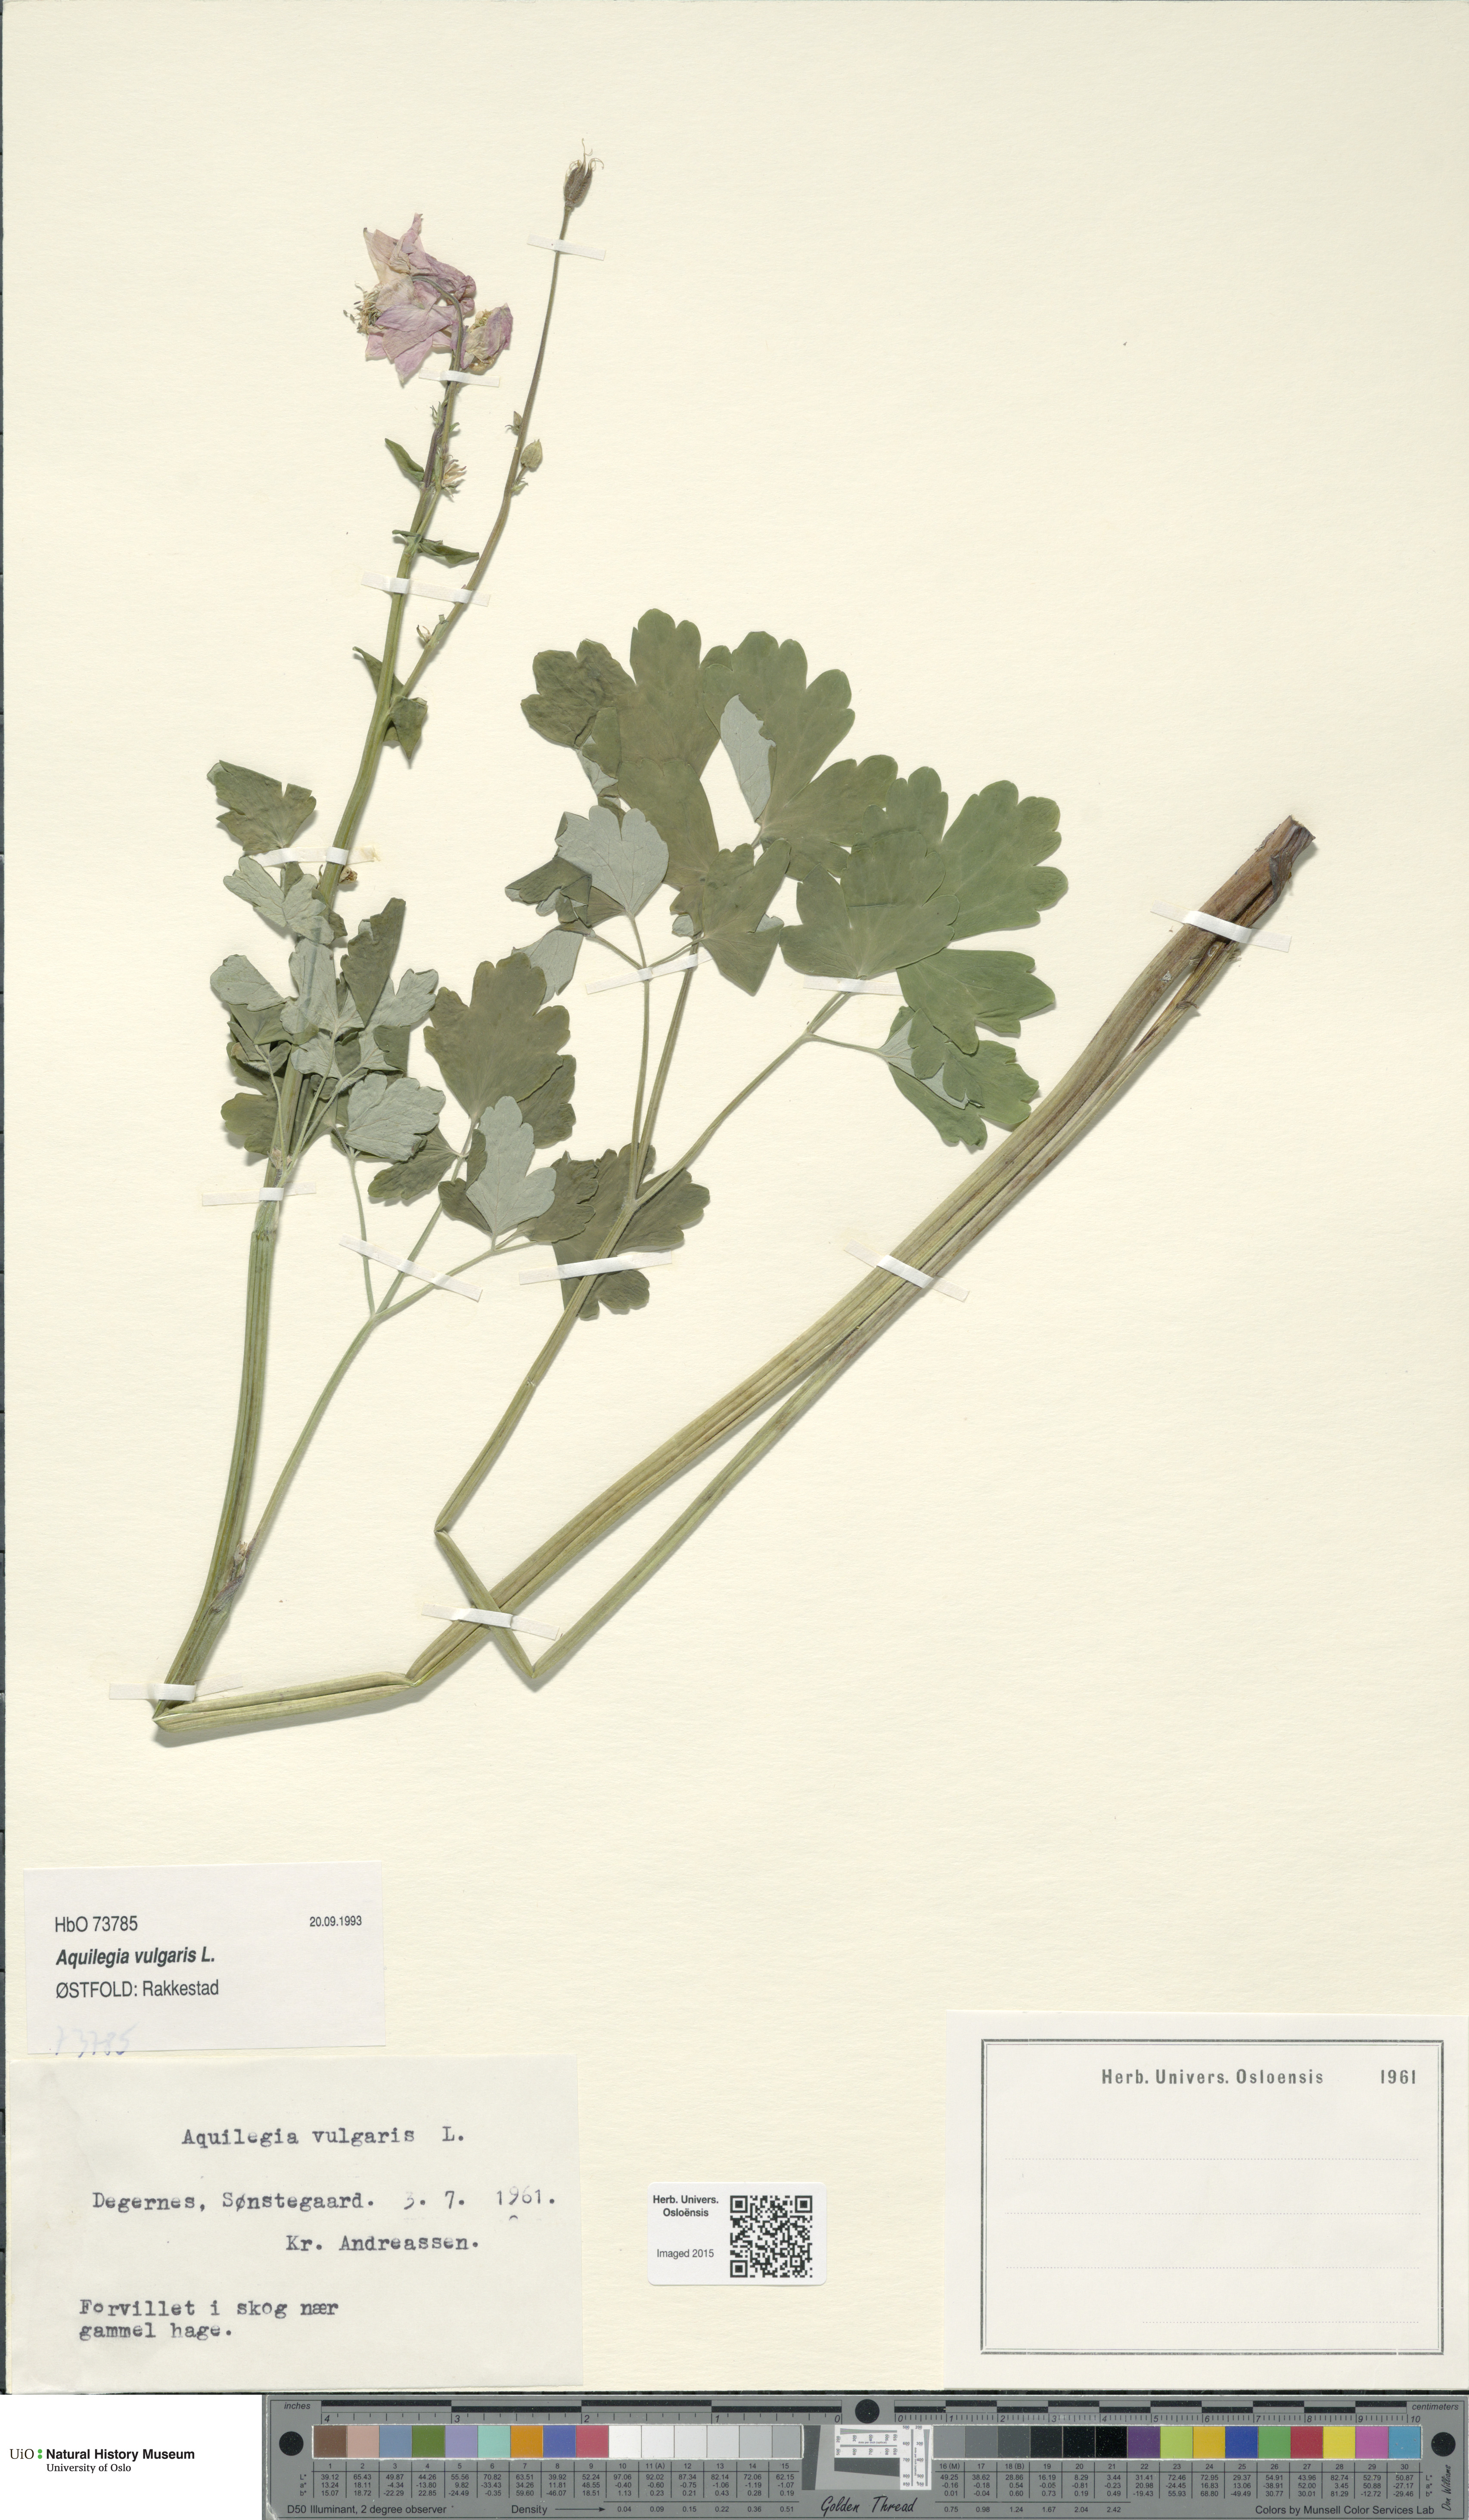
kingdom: Plantae
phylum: Tracheophyta
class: Magnoliopsida
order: Ranunculales
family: Ranunculaceae
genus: Aquilegia
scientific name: Aquilegia vulgaris
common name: Columbine
